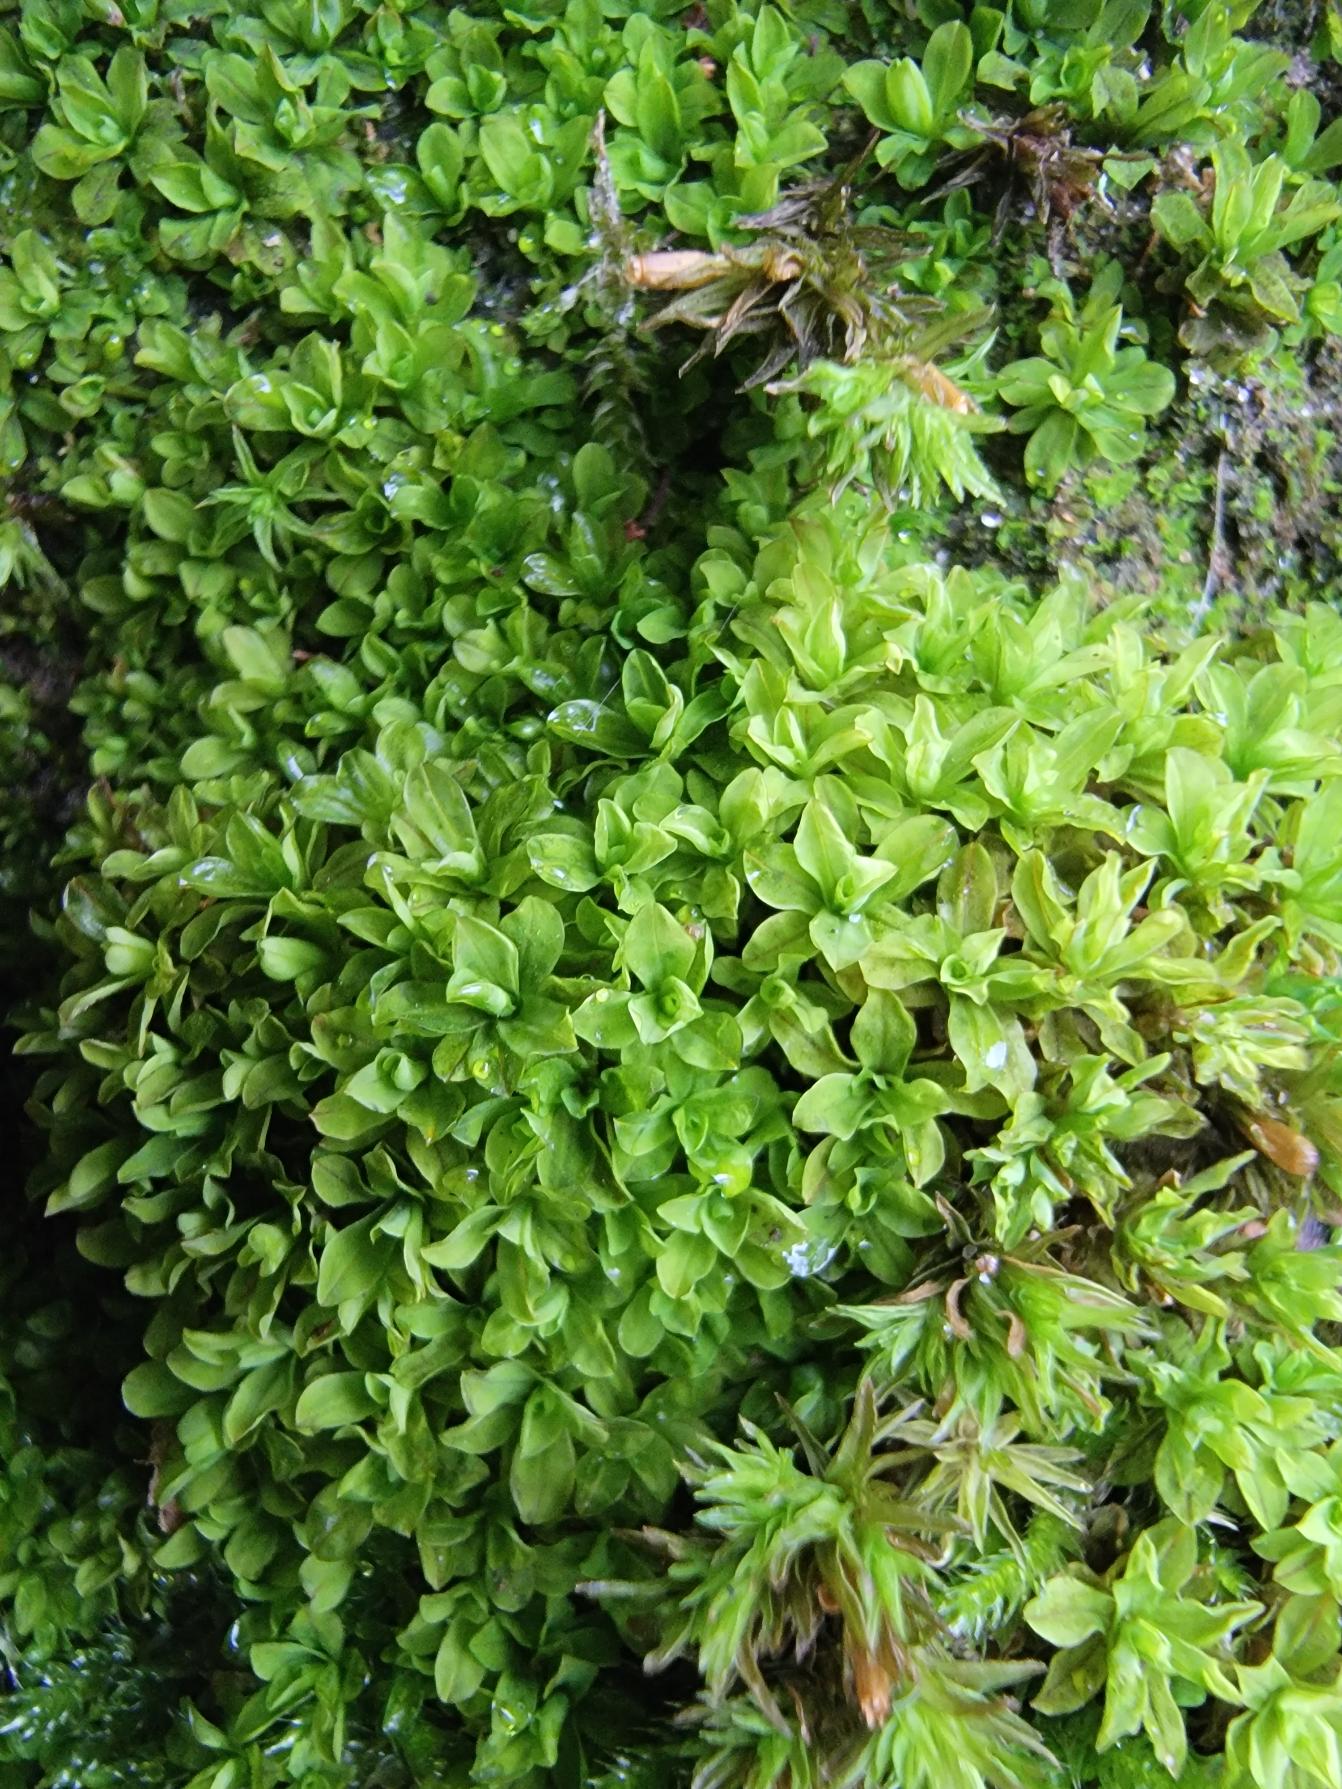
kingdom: Plantae
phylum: Bryophyta
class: Bryopsida
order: Pottiales
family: Pottiaceae
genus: Syntrichia
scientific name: Syntrichia latifolia
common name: Butbladet hårstjerne
